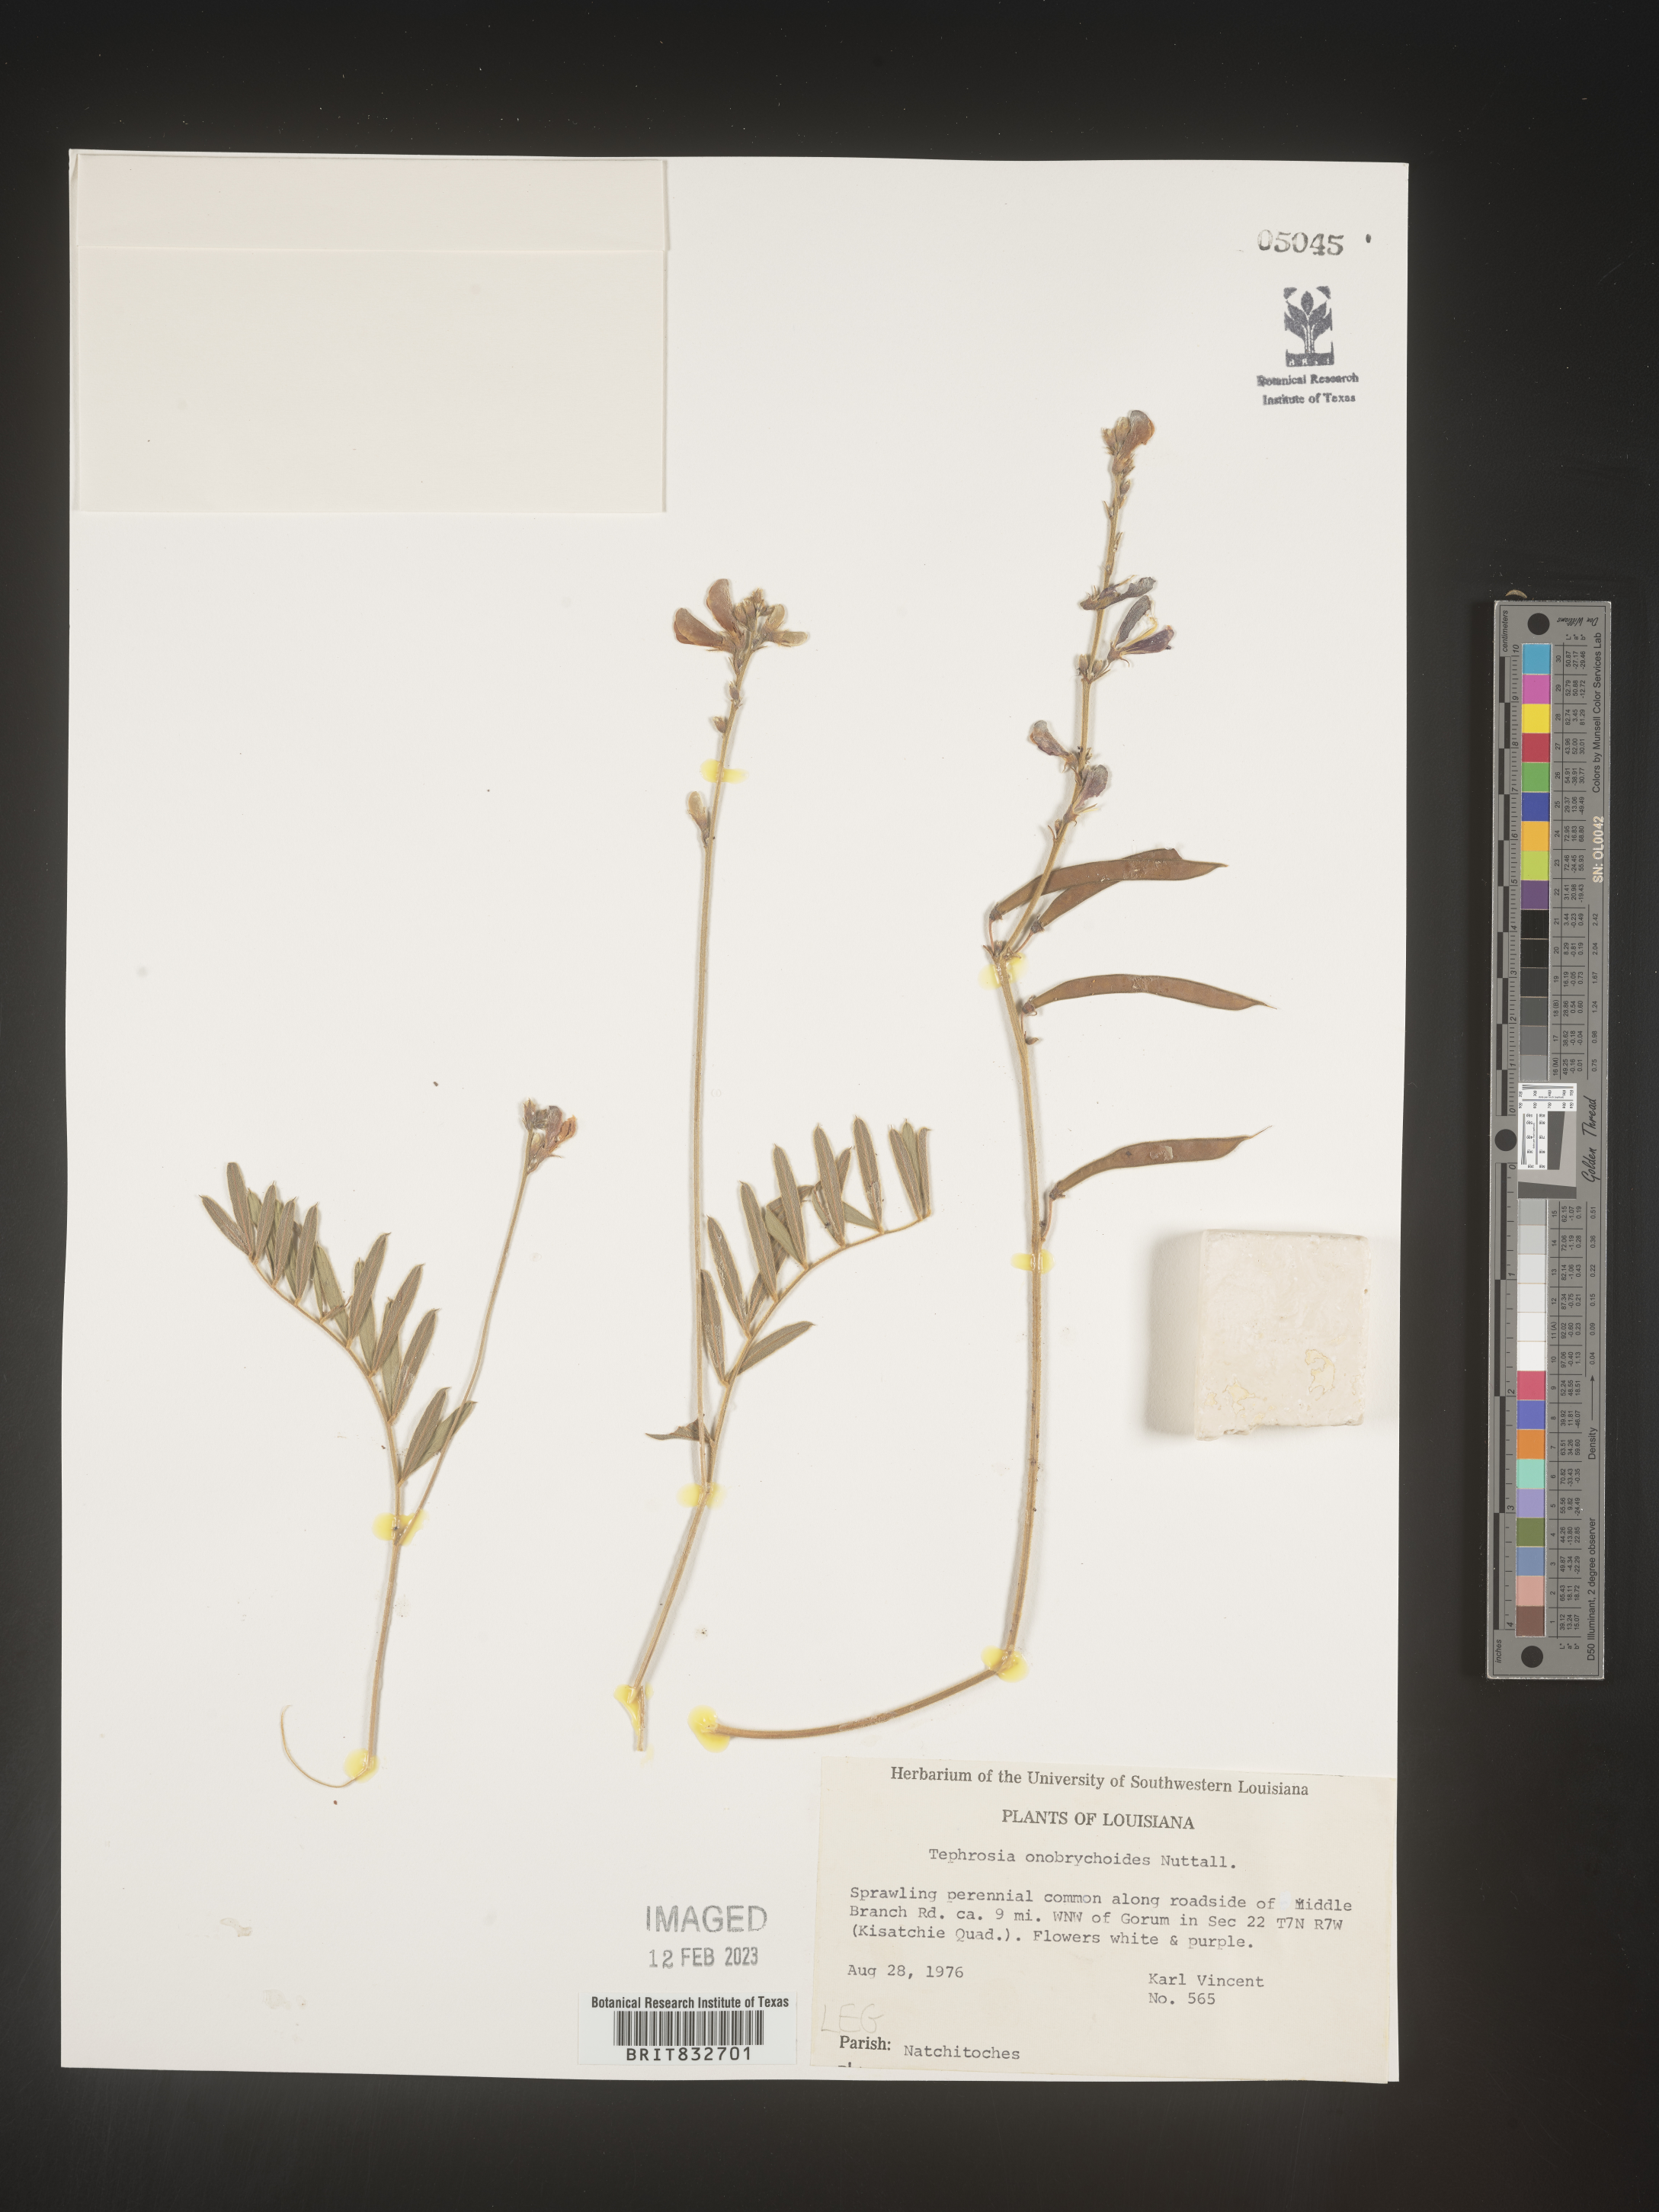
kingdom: Plantae
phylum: Tracheophyta
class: Magnoliopsida
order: Fabales
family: Fabaceae
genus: Tephrosia
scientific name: Tephrosia onobrychoides
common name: Multi-bloom hoary-pea
